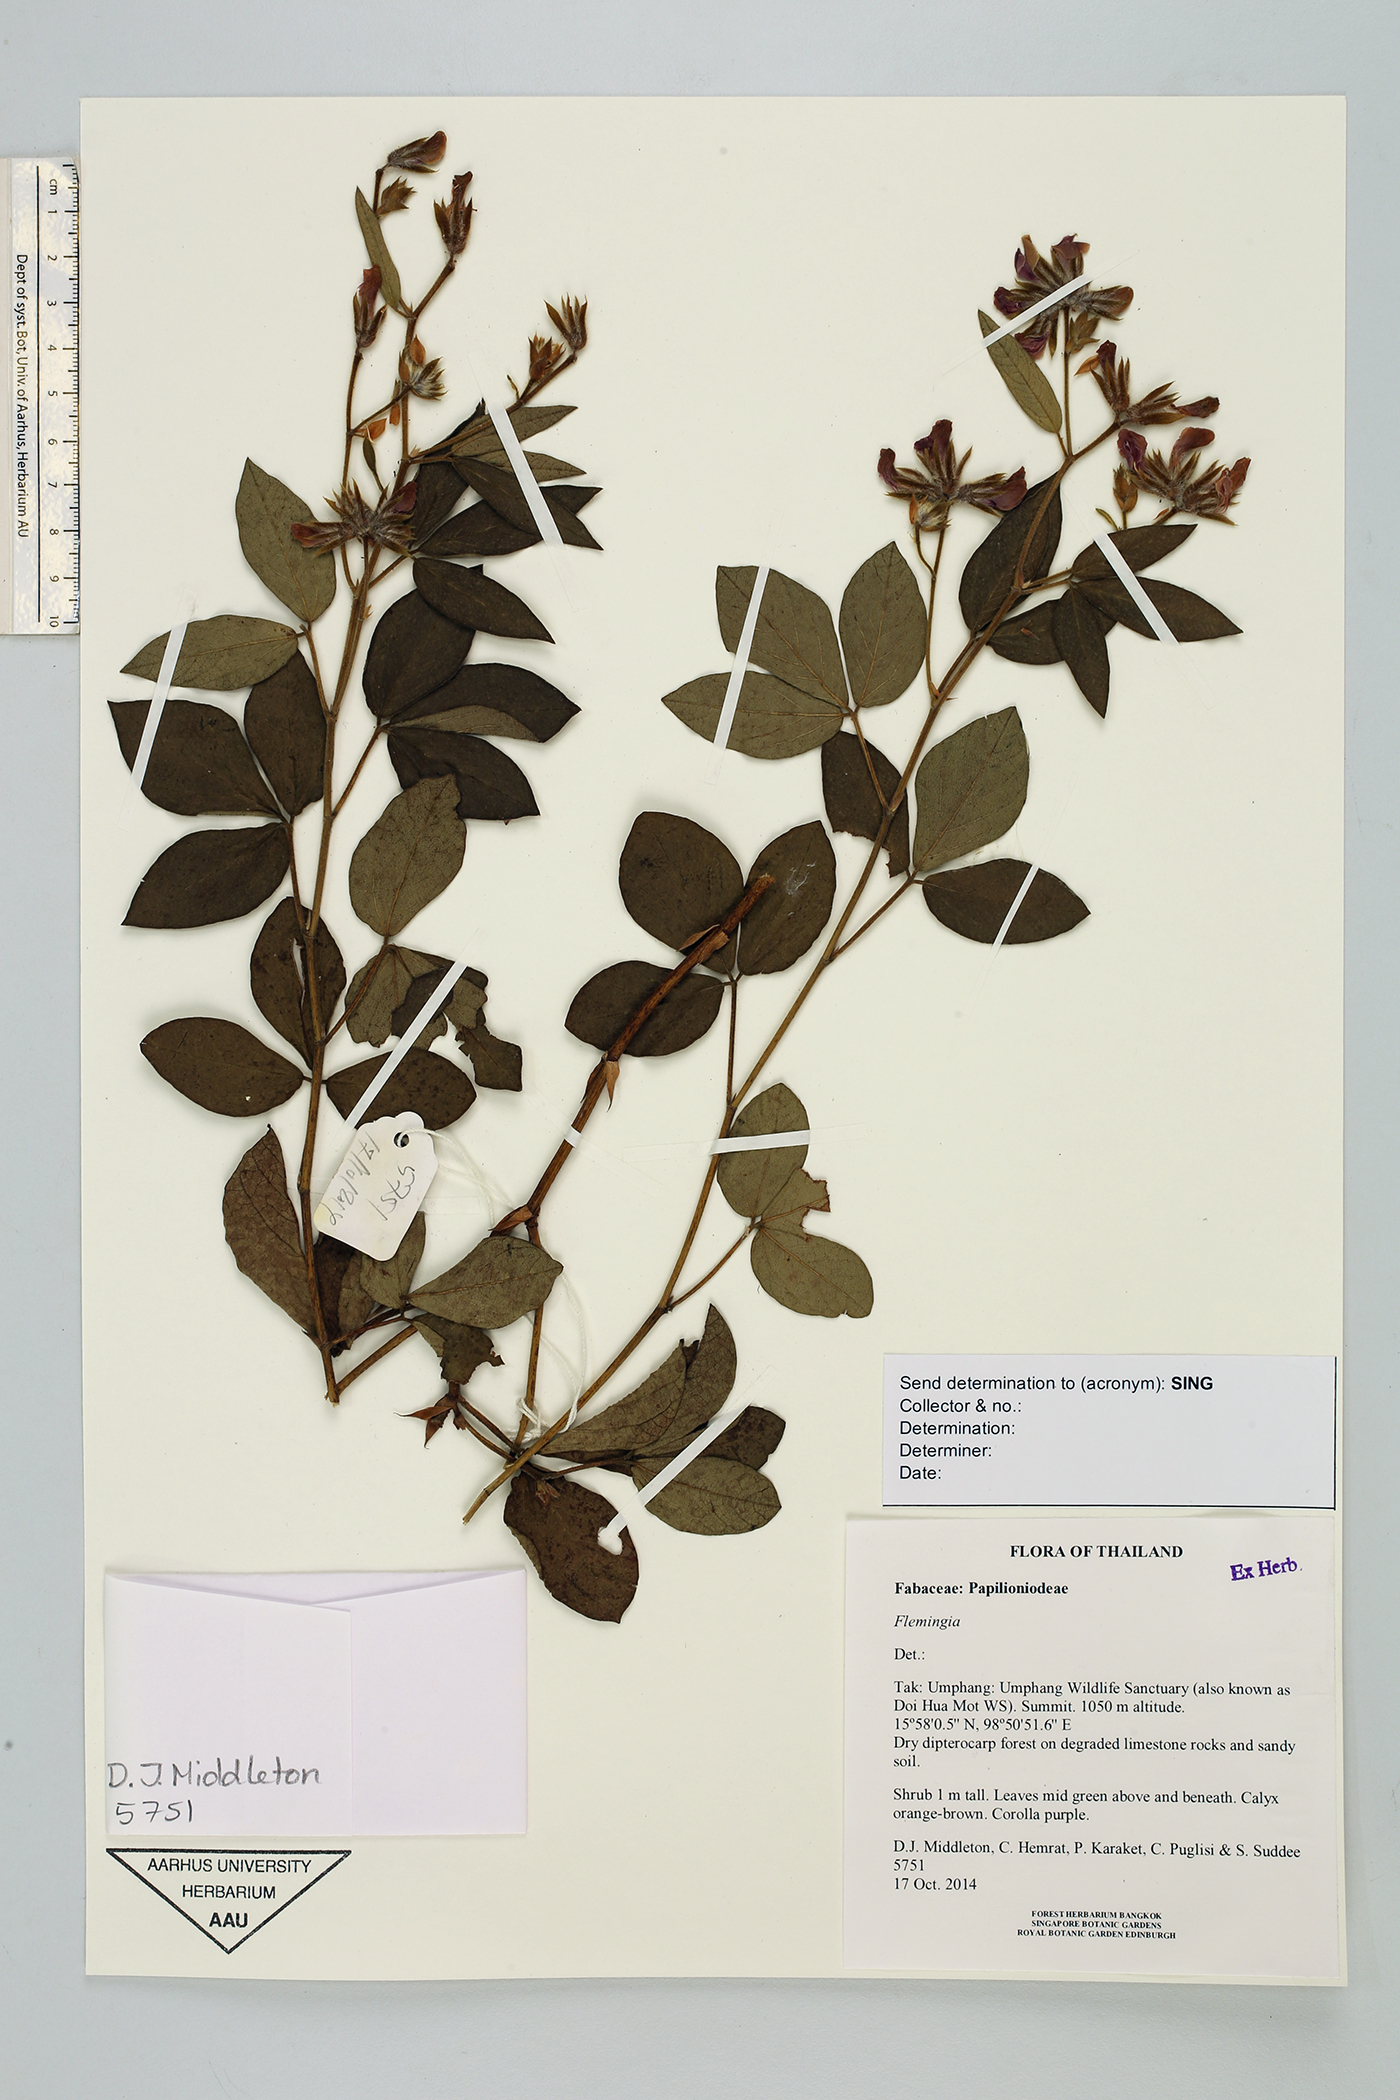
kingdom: Plantae
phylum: Tracheophyta
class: Magnoliopsida
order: Fabales
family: Fabaceae
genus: Flemingia
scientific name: Flemingia
